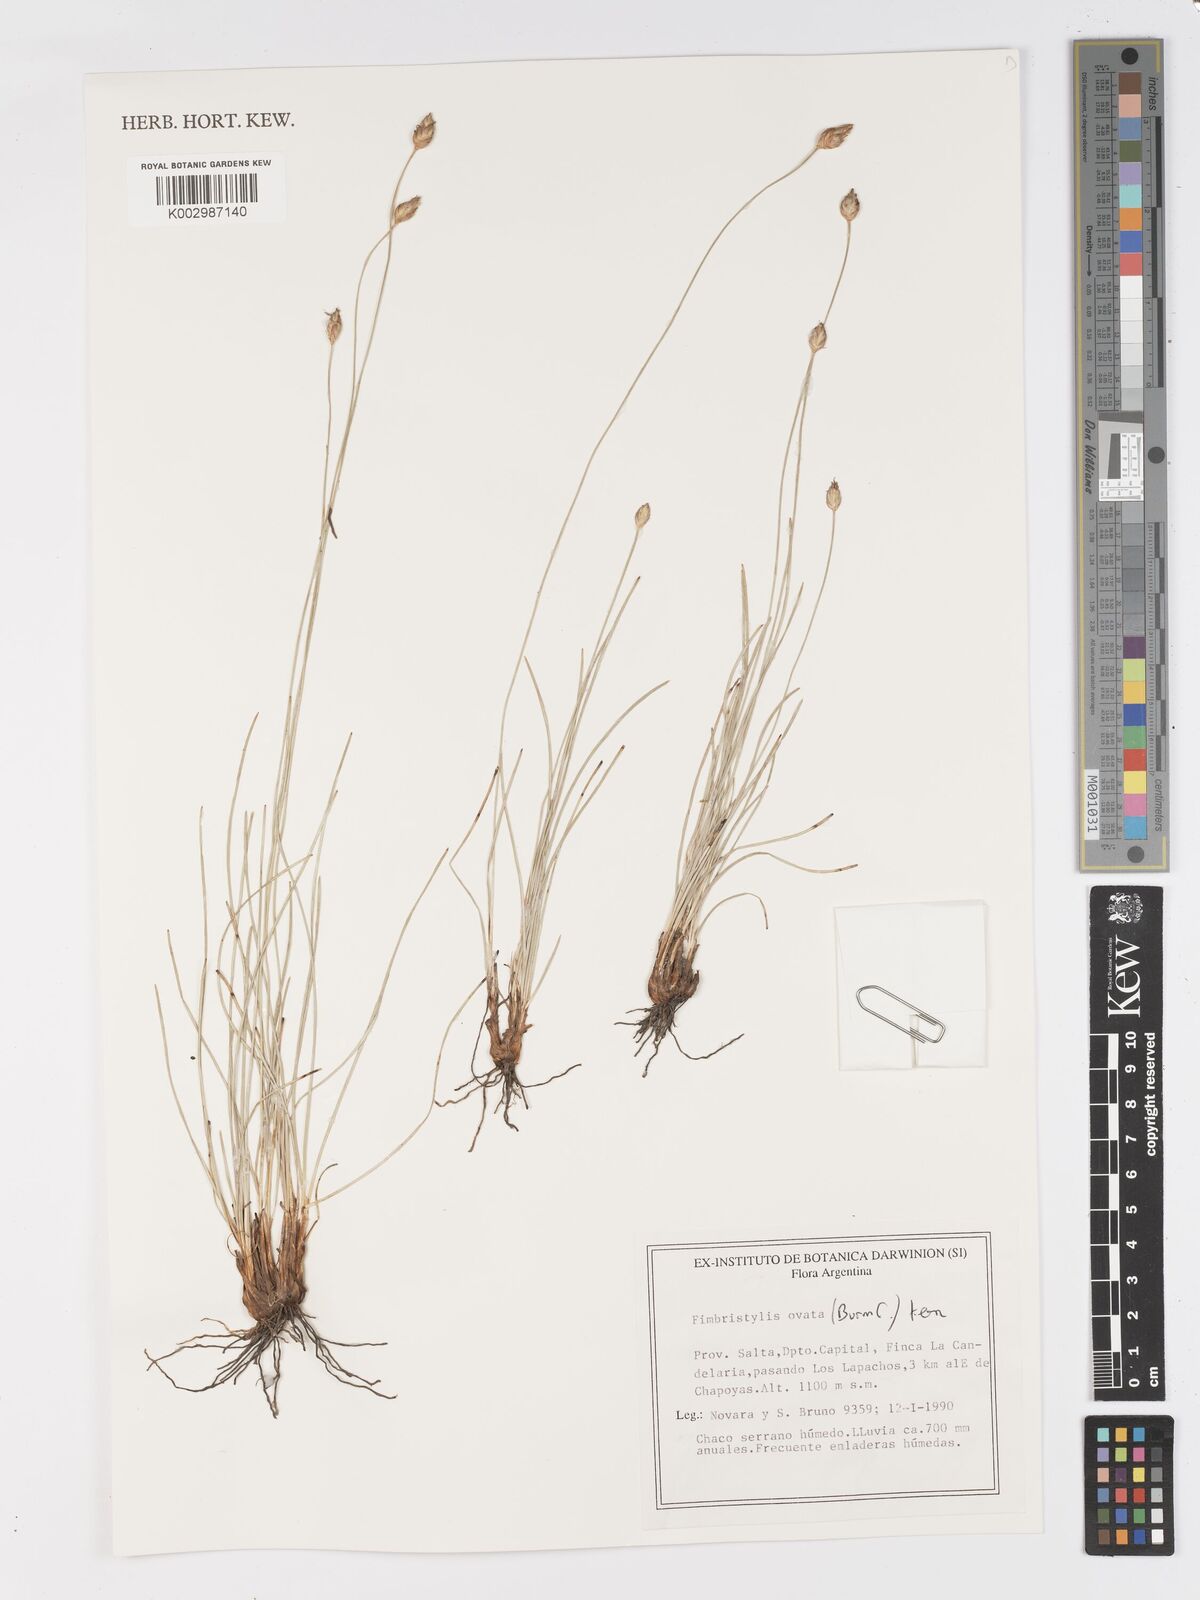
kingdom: Plantae
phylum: Tracheophyta
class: Liliopsida
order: Poales
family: Cyperaceae
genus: Abildgaardia
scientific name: Abildgaardia ovata
